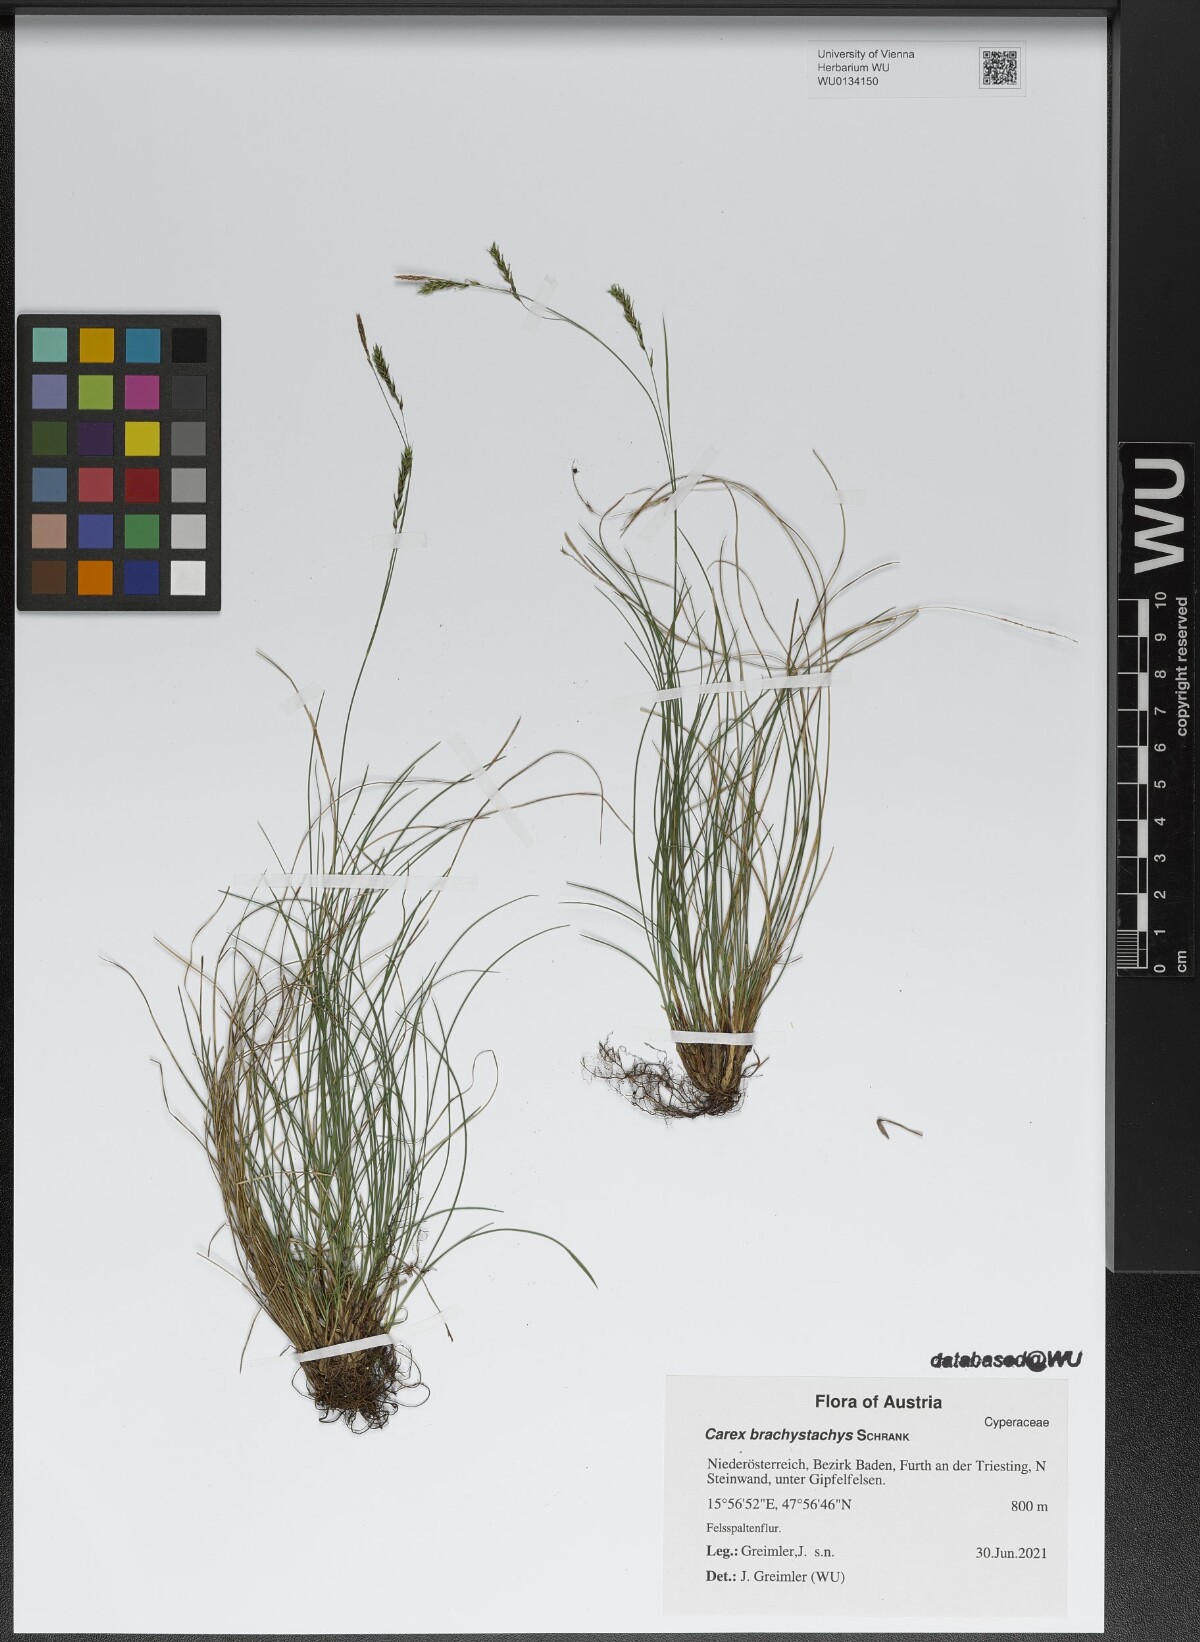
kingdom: Plantae
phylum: Tracheophyta
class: Liliopsida
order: Poales
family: Cyperaceae
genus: Carex
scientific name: Carex brachystachys
